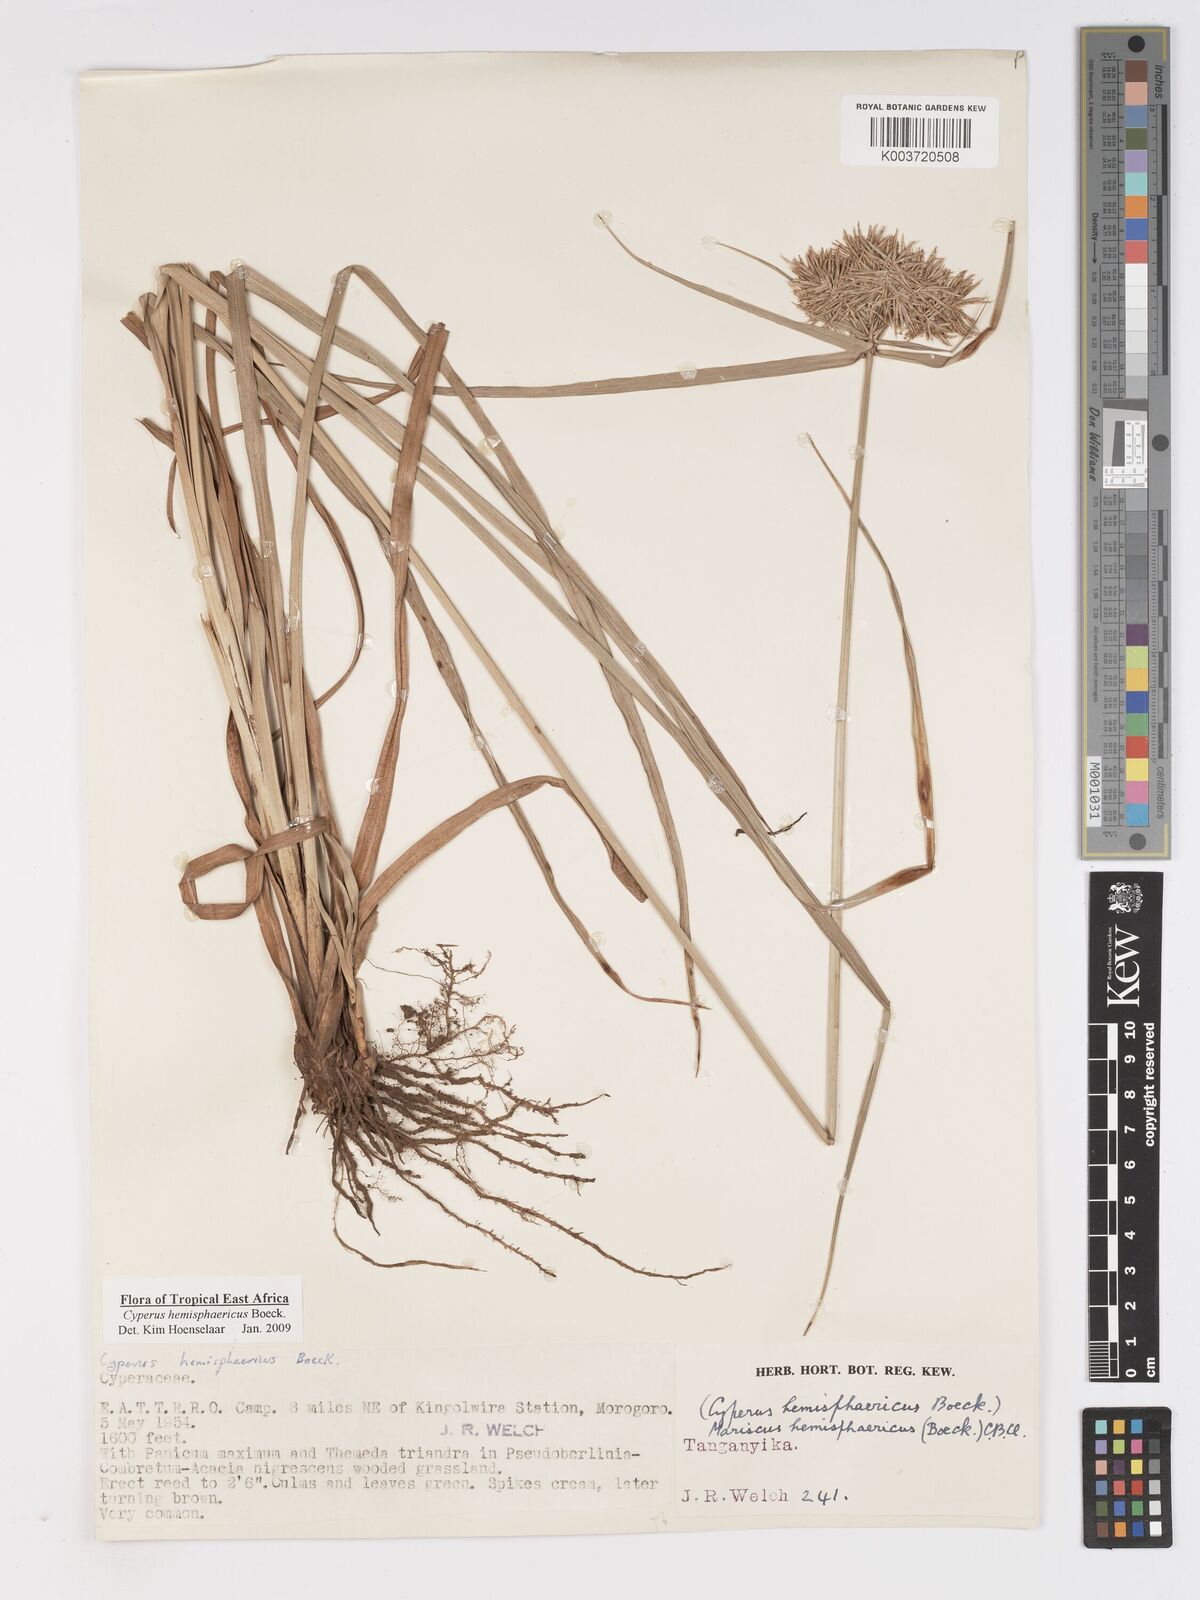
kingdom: Plantae
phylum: Tracheophyta
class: Liliopsida
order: Poales
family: Cyperaceae
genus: Cyperus
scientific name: Cyperus hemisphaericus
